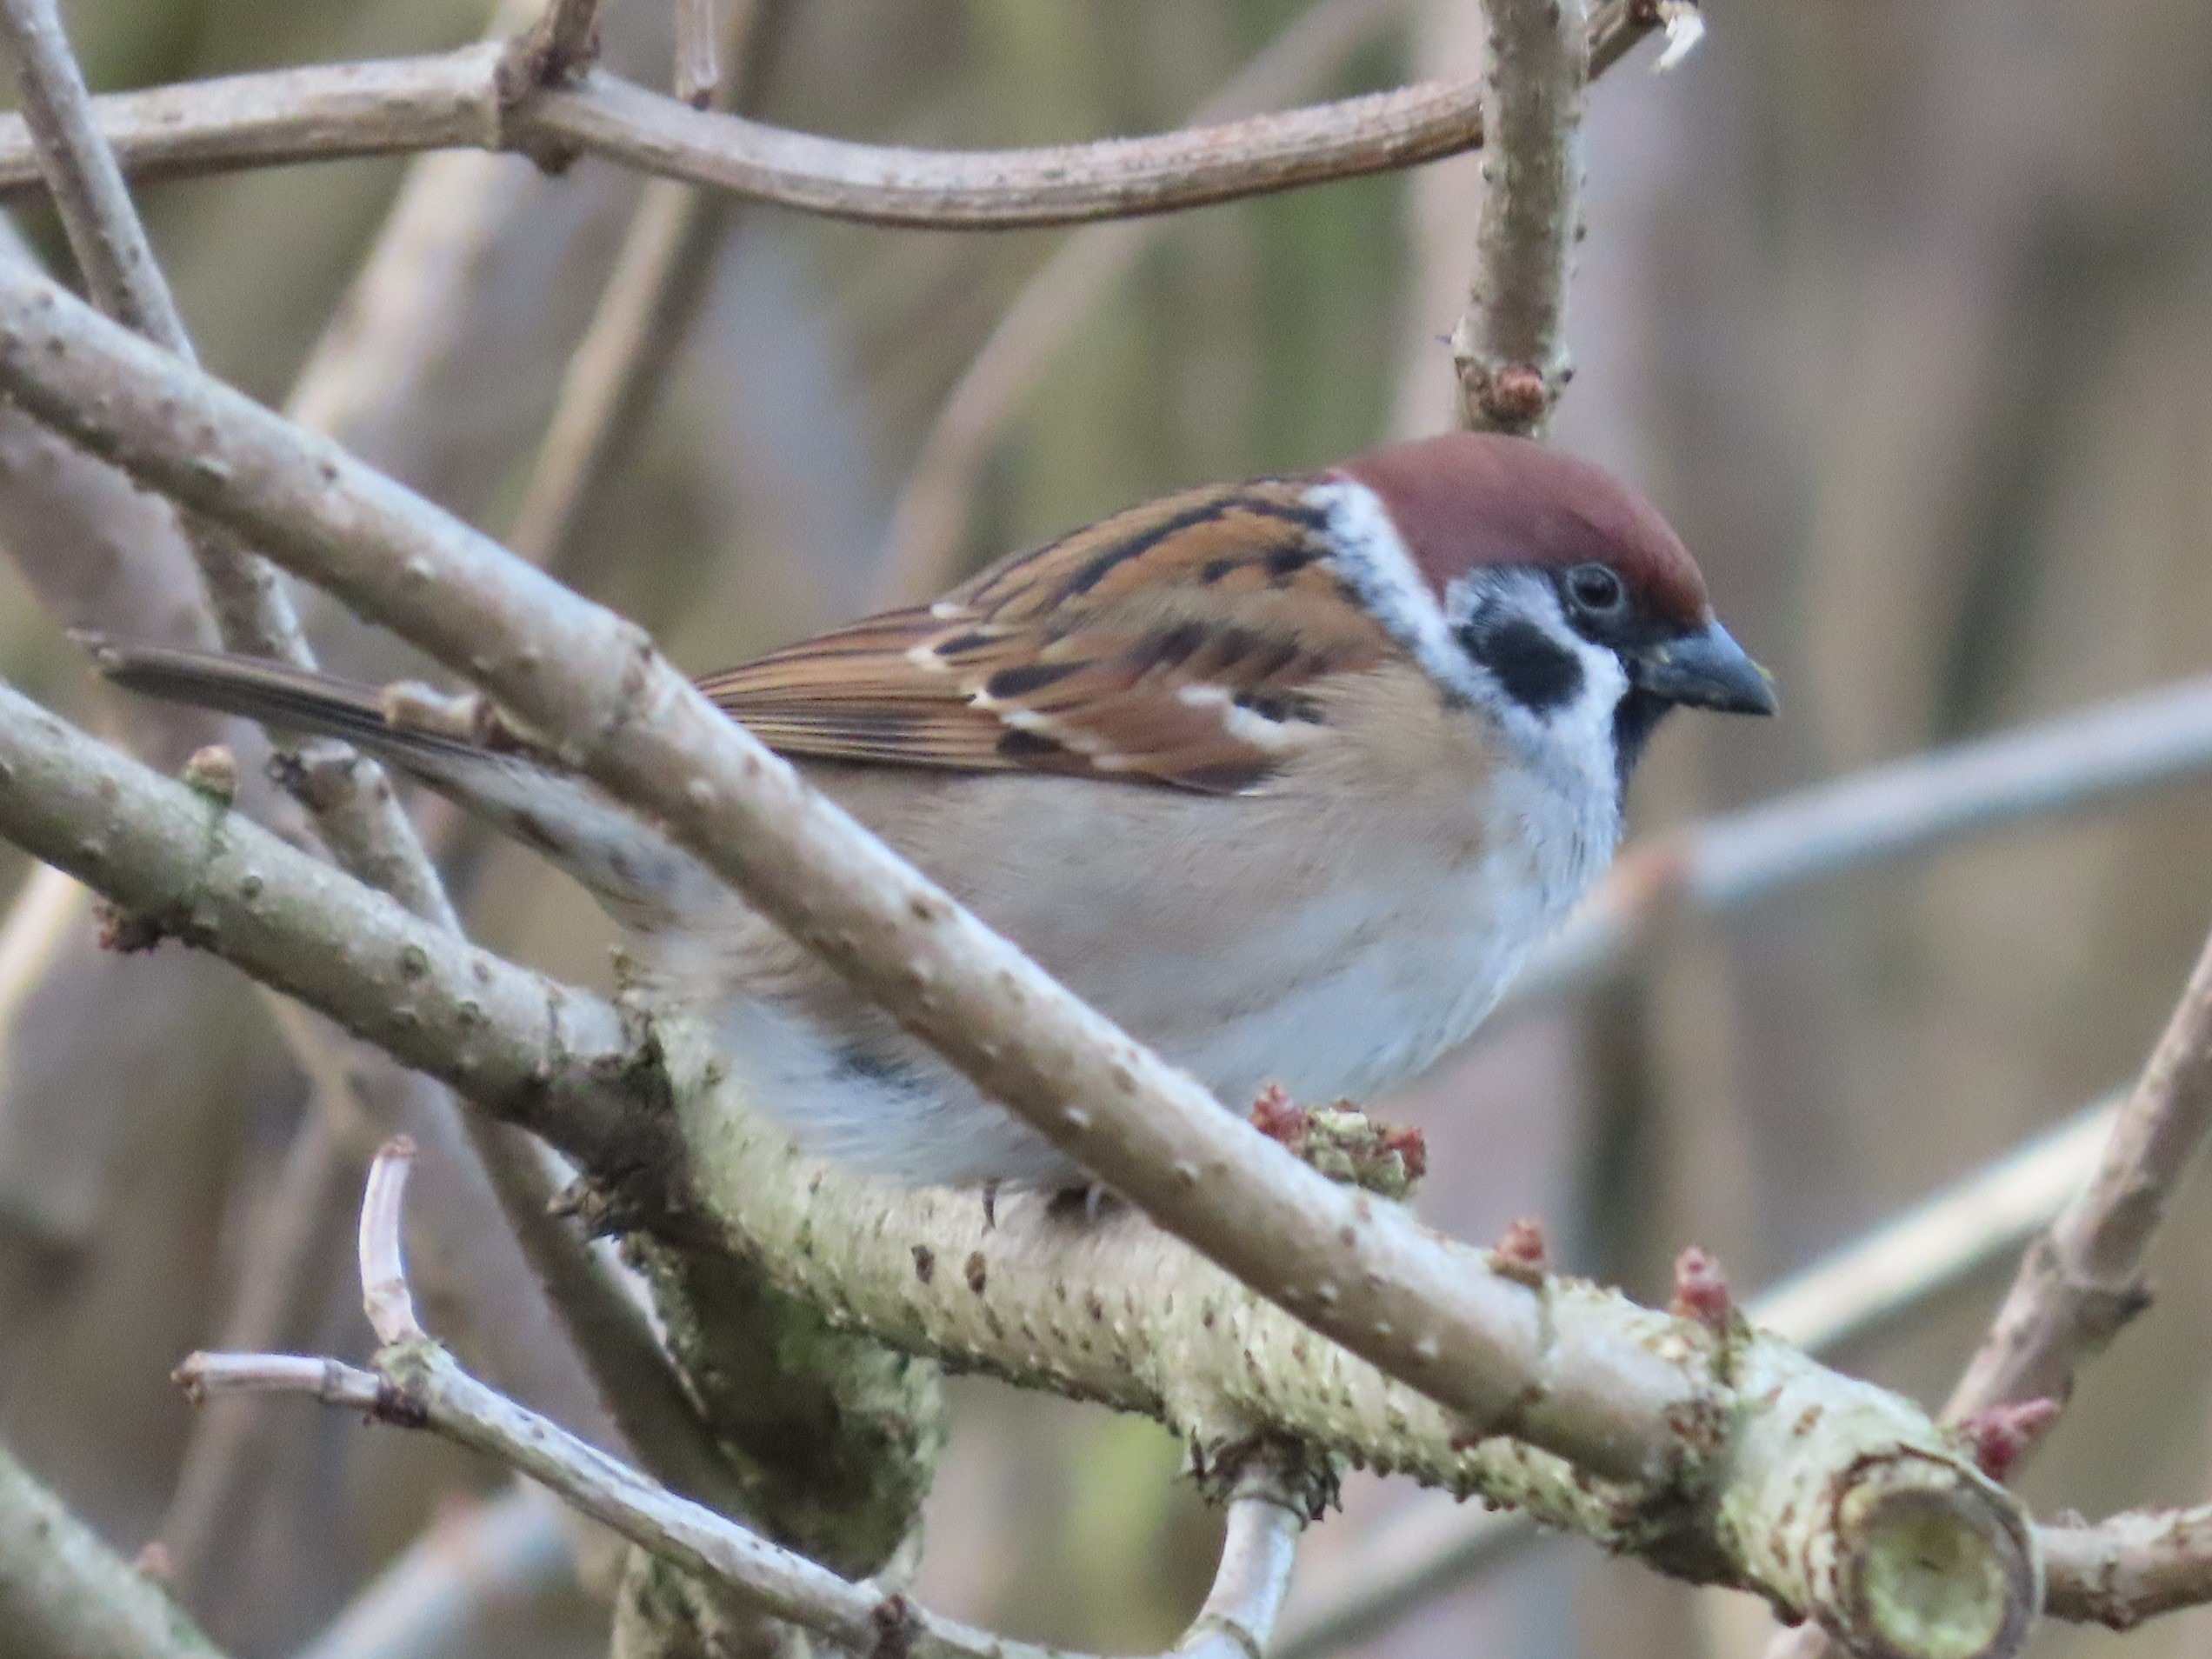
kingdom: Animalia
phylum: Chordata
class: Aves
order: Passeriformes
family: Passeridae
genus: Passer
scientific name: Passer montanus
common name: Skovspurv
